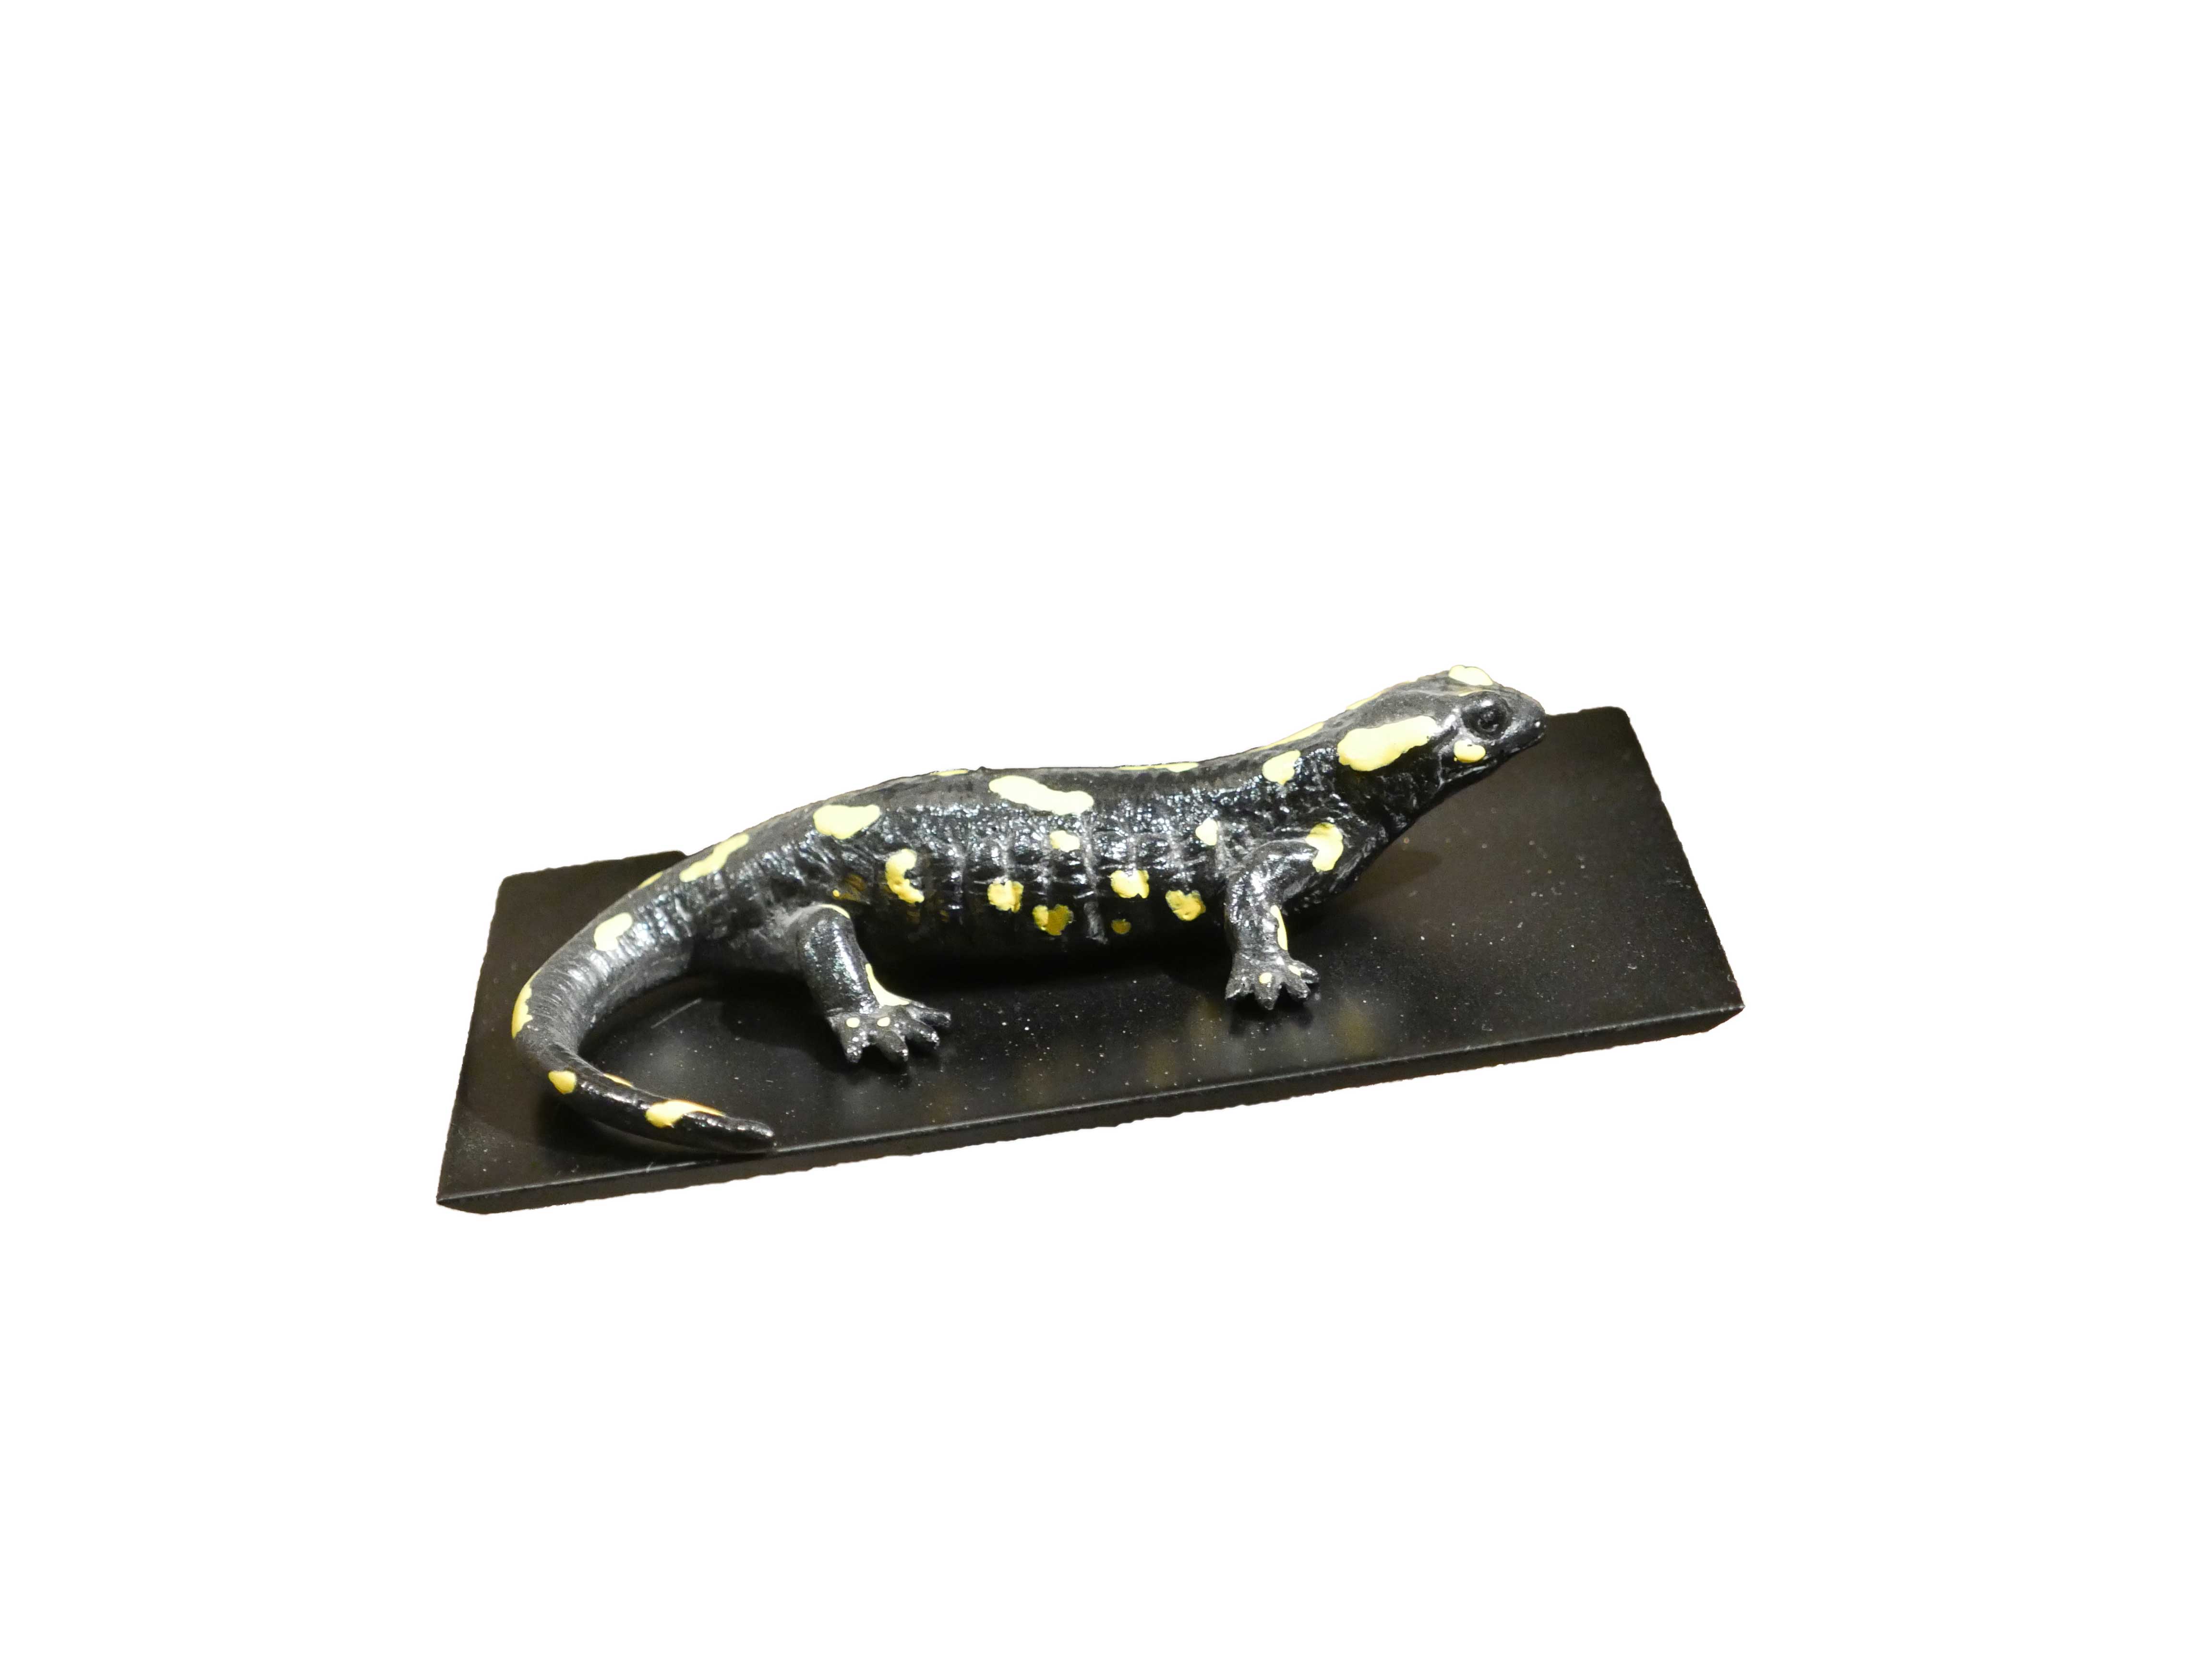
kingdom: Animalia
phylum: Chordata
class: Amphibia
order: Caudata
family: Salamandridae
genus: Salamandra
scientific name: Salamandra salamandra
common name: Fire salamander
